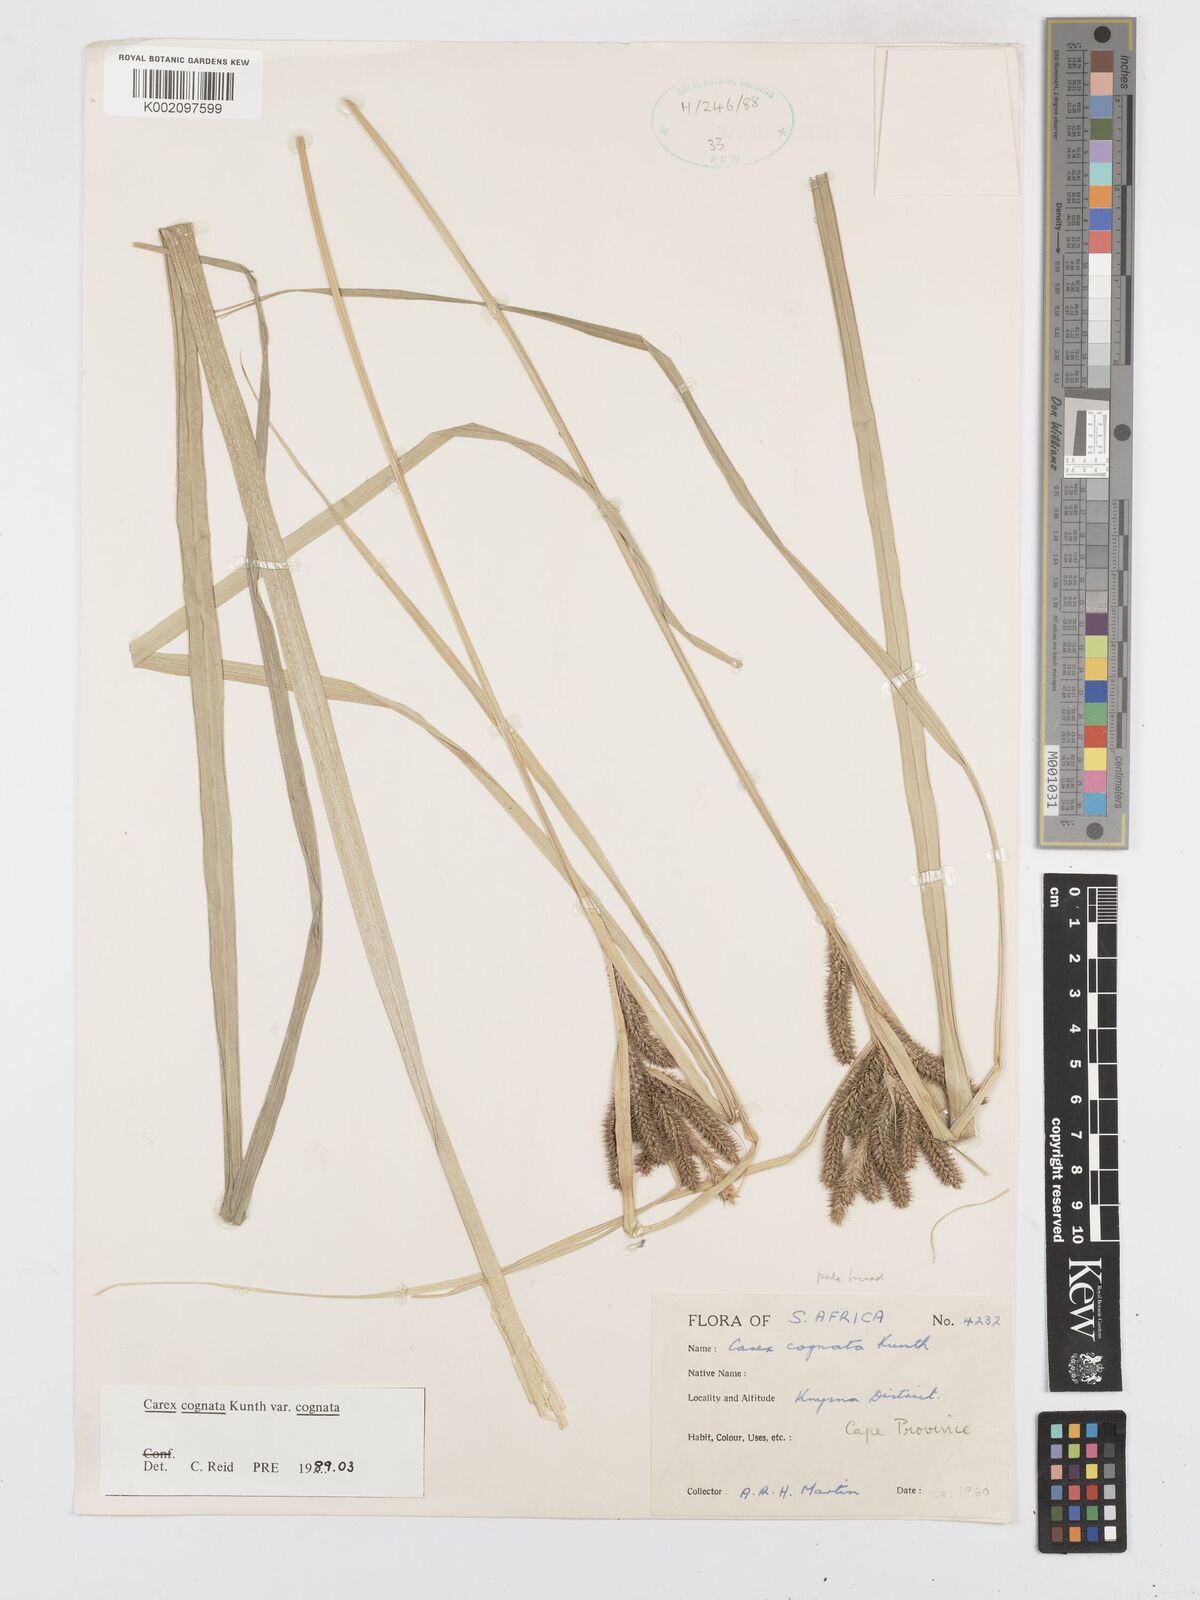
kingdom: Plantae
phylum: Tracheophyta
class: Liliopsida
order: Poales
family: Cyperaceae
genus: Carex
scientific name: Carex cognata
